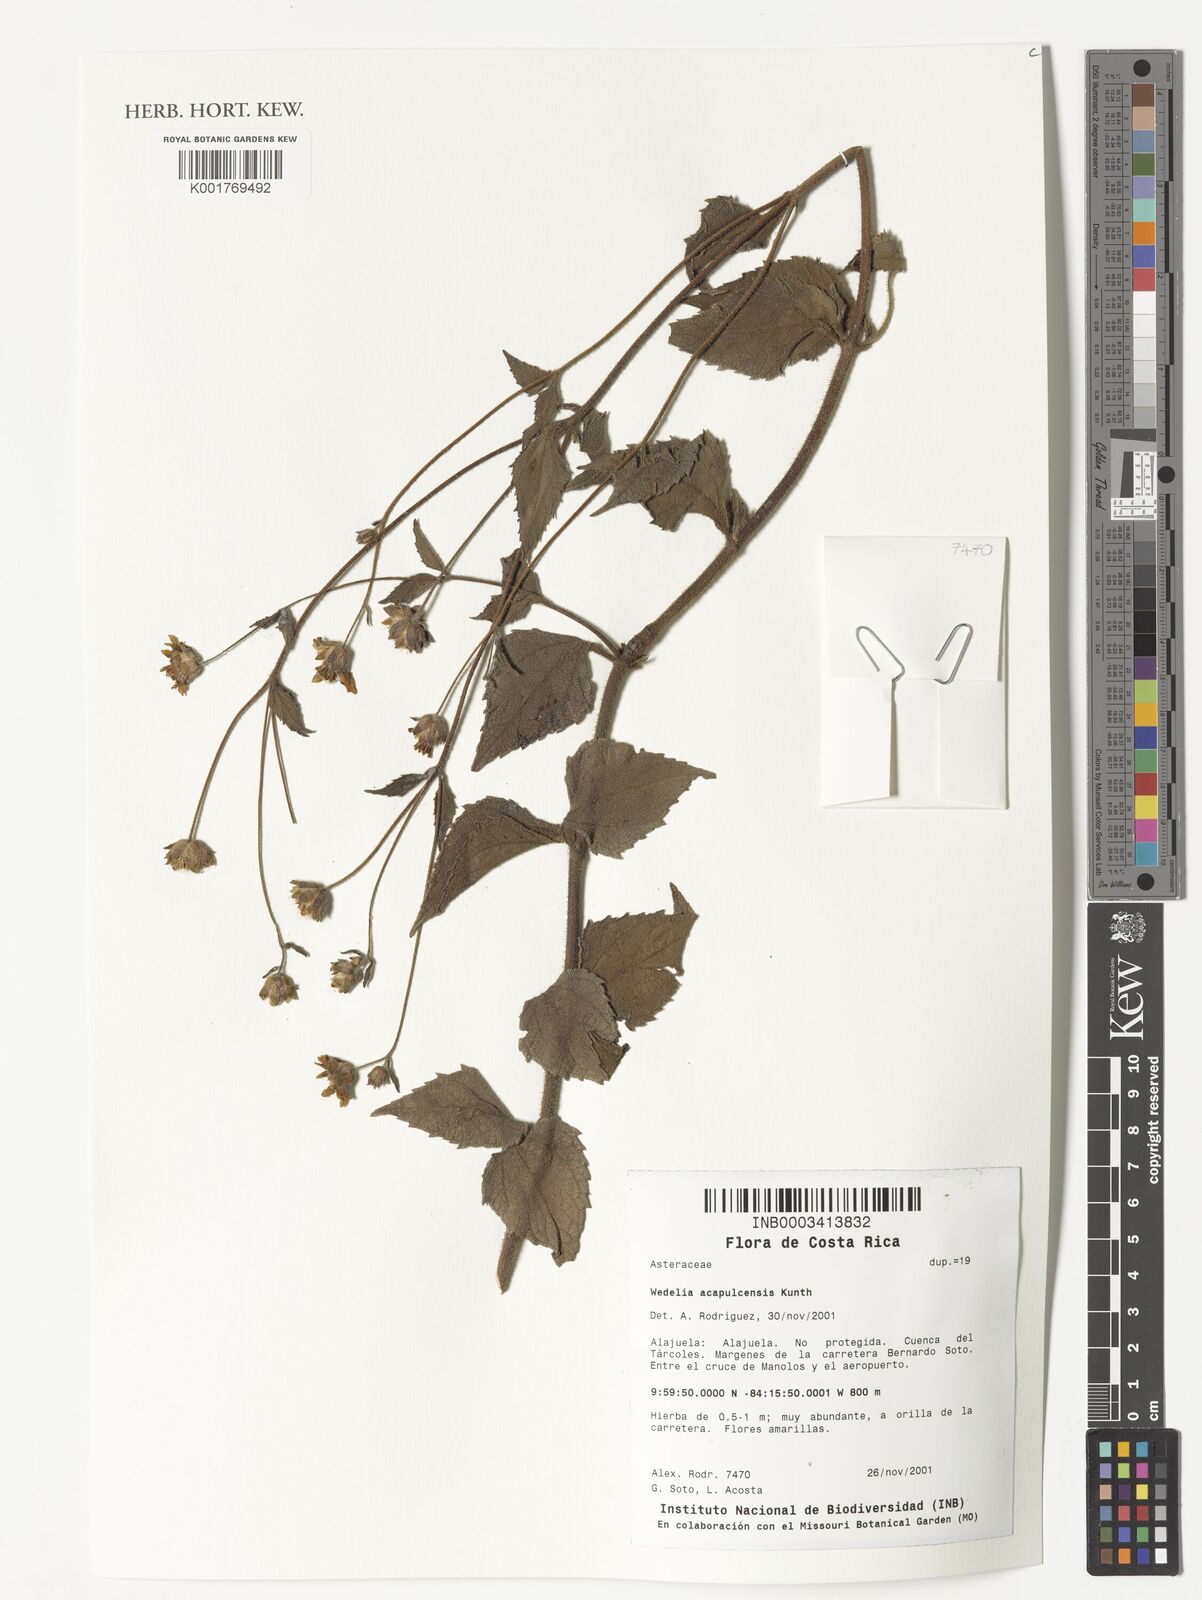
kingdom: Plantae
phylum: Tracheophyta
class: Magnoliopsida
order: Asterales
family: Asteraceae
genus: Wedelia
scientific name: Wedelia acapulcensis
